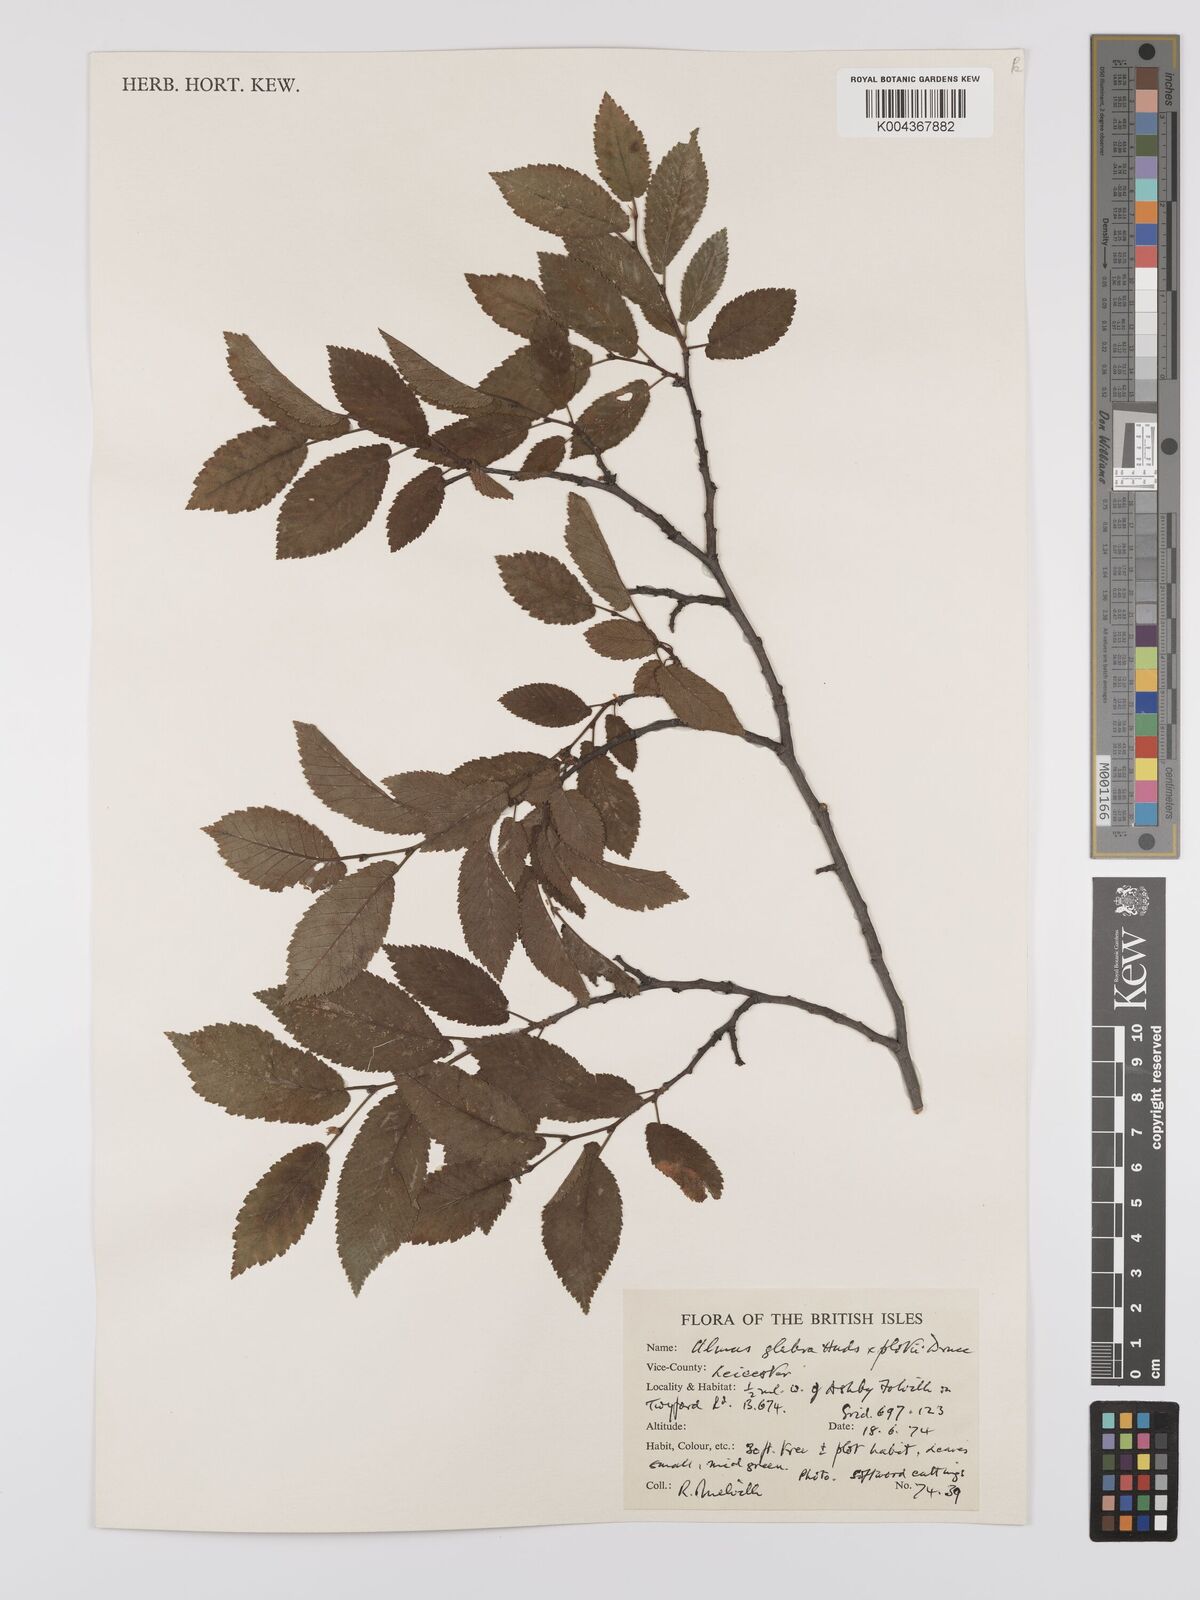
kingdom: Plantae
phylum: Tracheophyta
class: Magnoliopsida
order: Rosales
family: Ulmaceae
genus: Ulmus
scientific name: Ulmus glabra
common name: Wych elm
